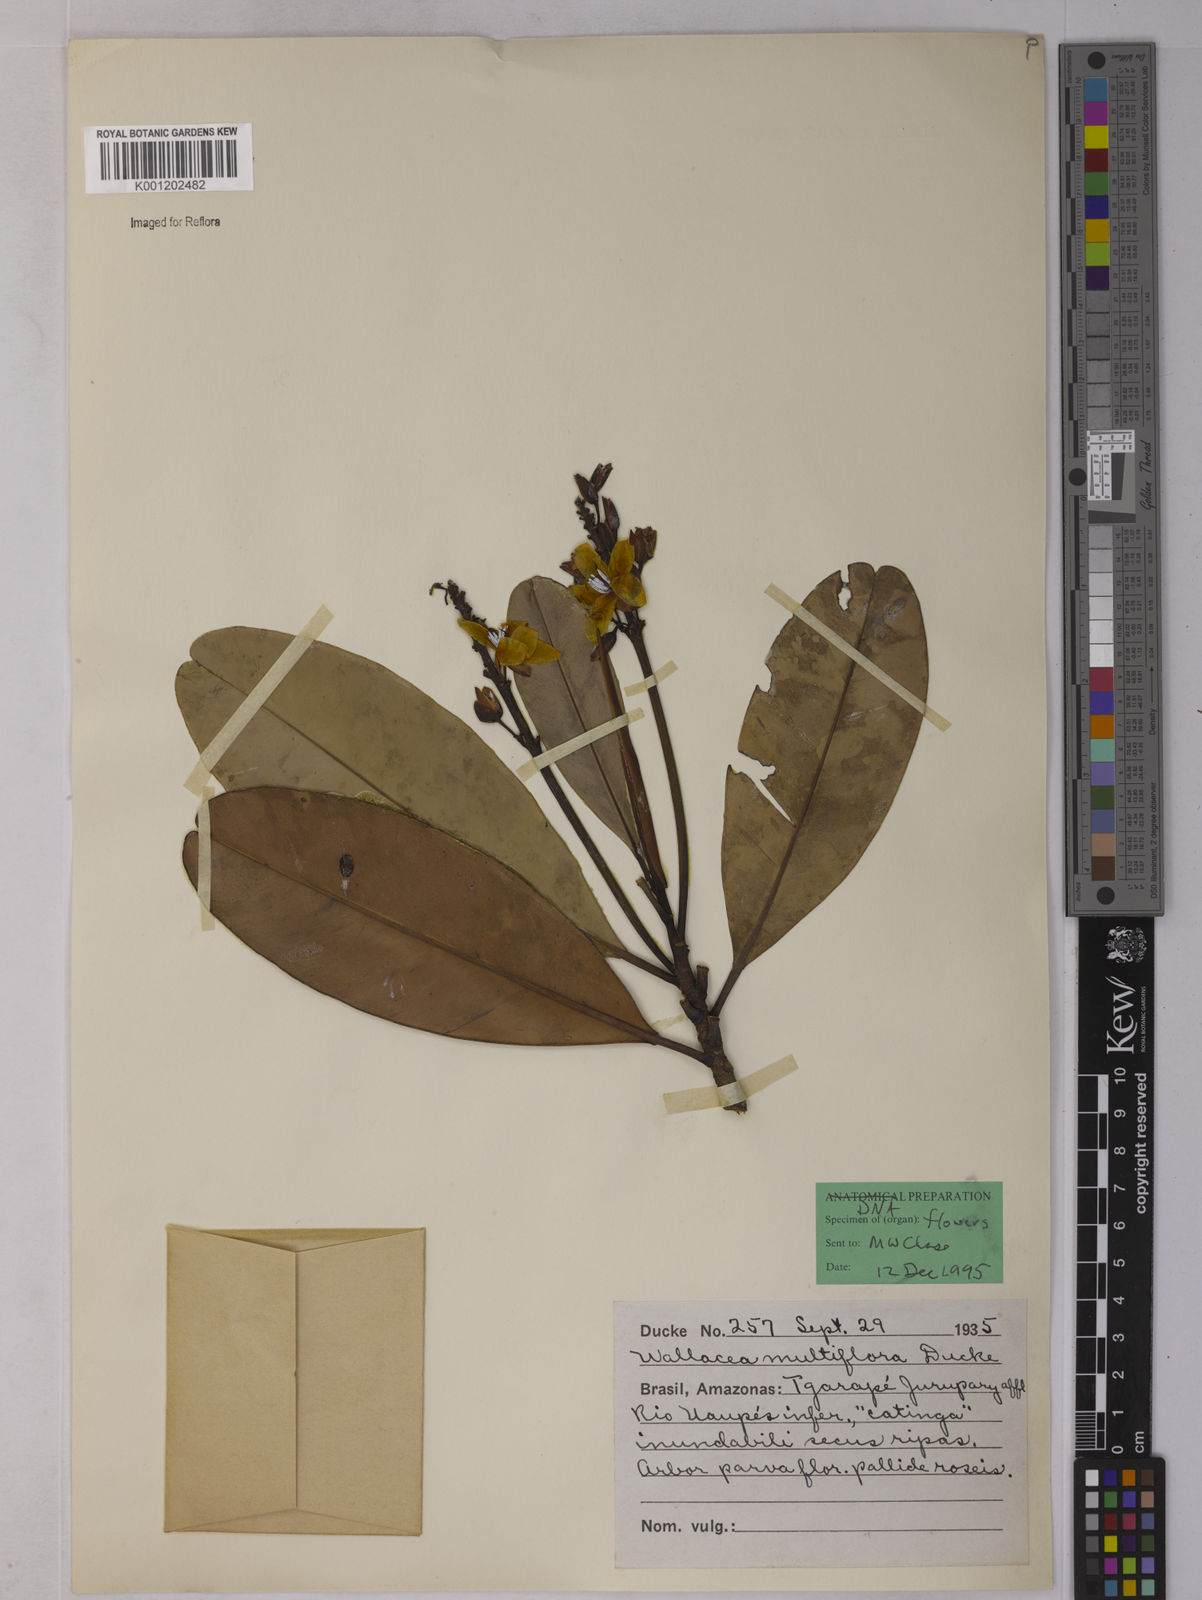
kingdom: Plantae
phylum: Tracheophyta
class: Magnoliopsida
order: Malpighiales
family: Ochnaceae
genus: Wallacea
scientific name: Wallacea multiflora
